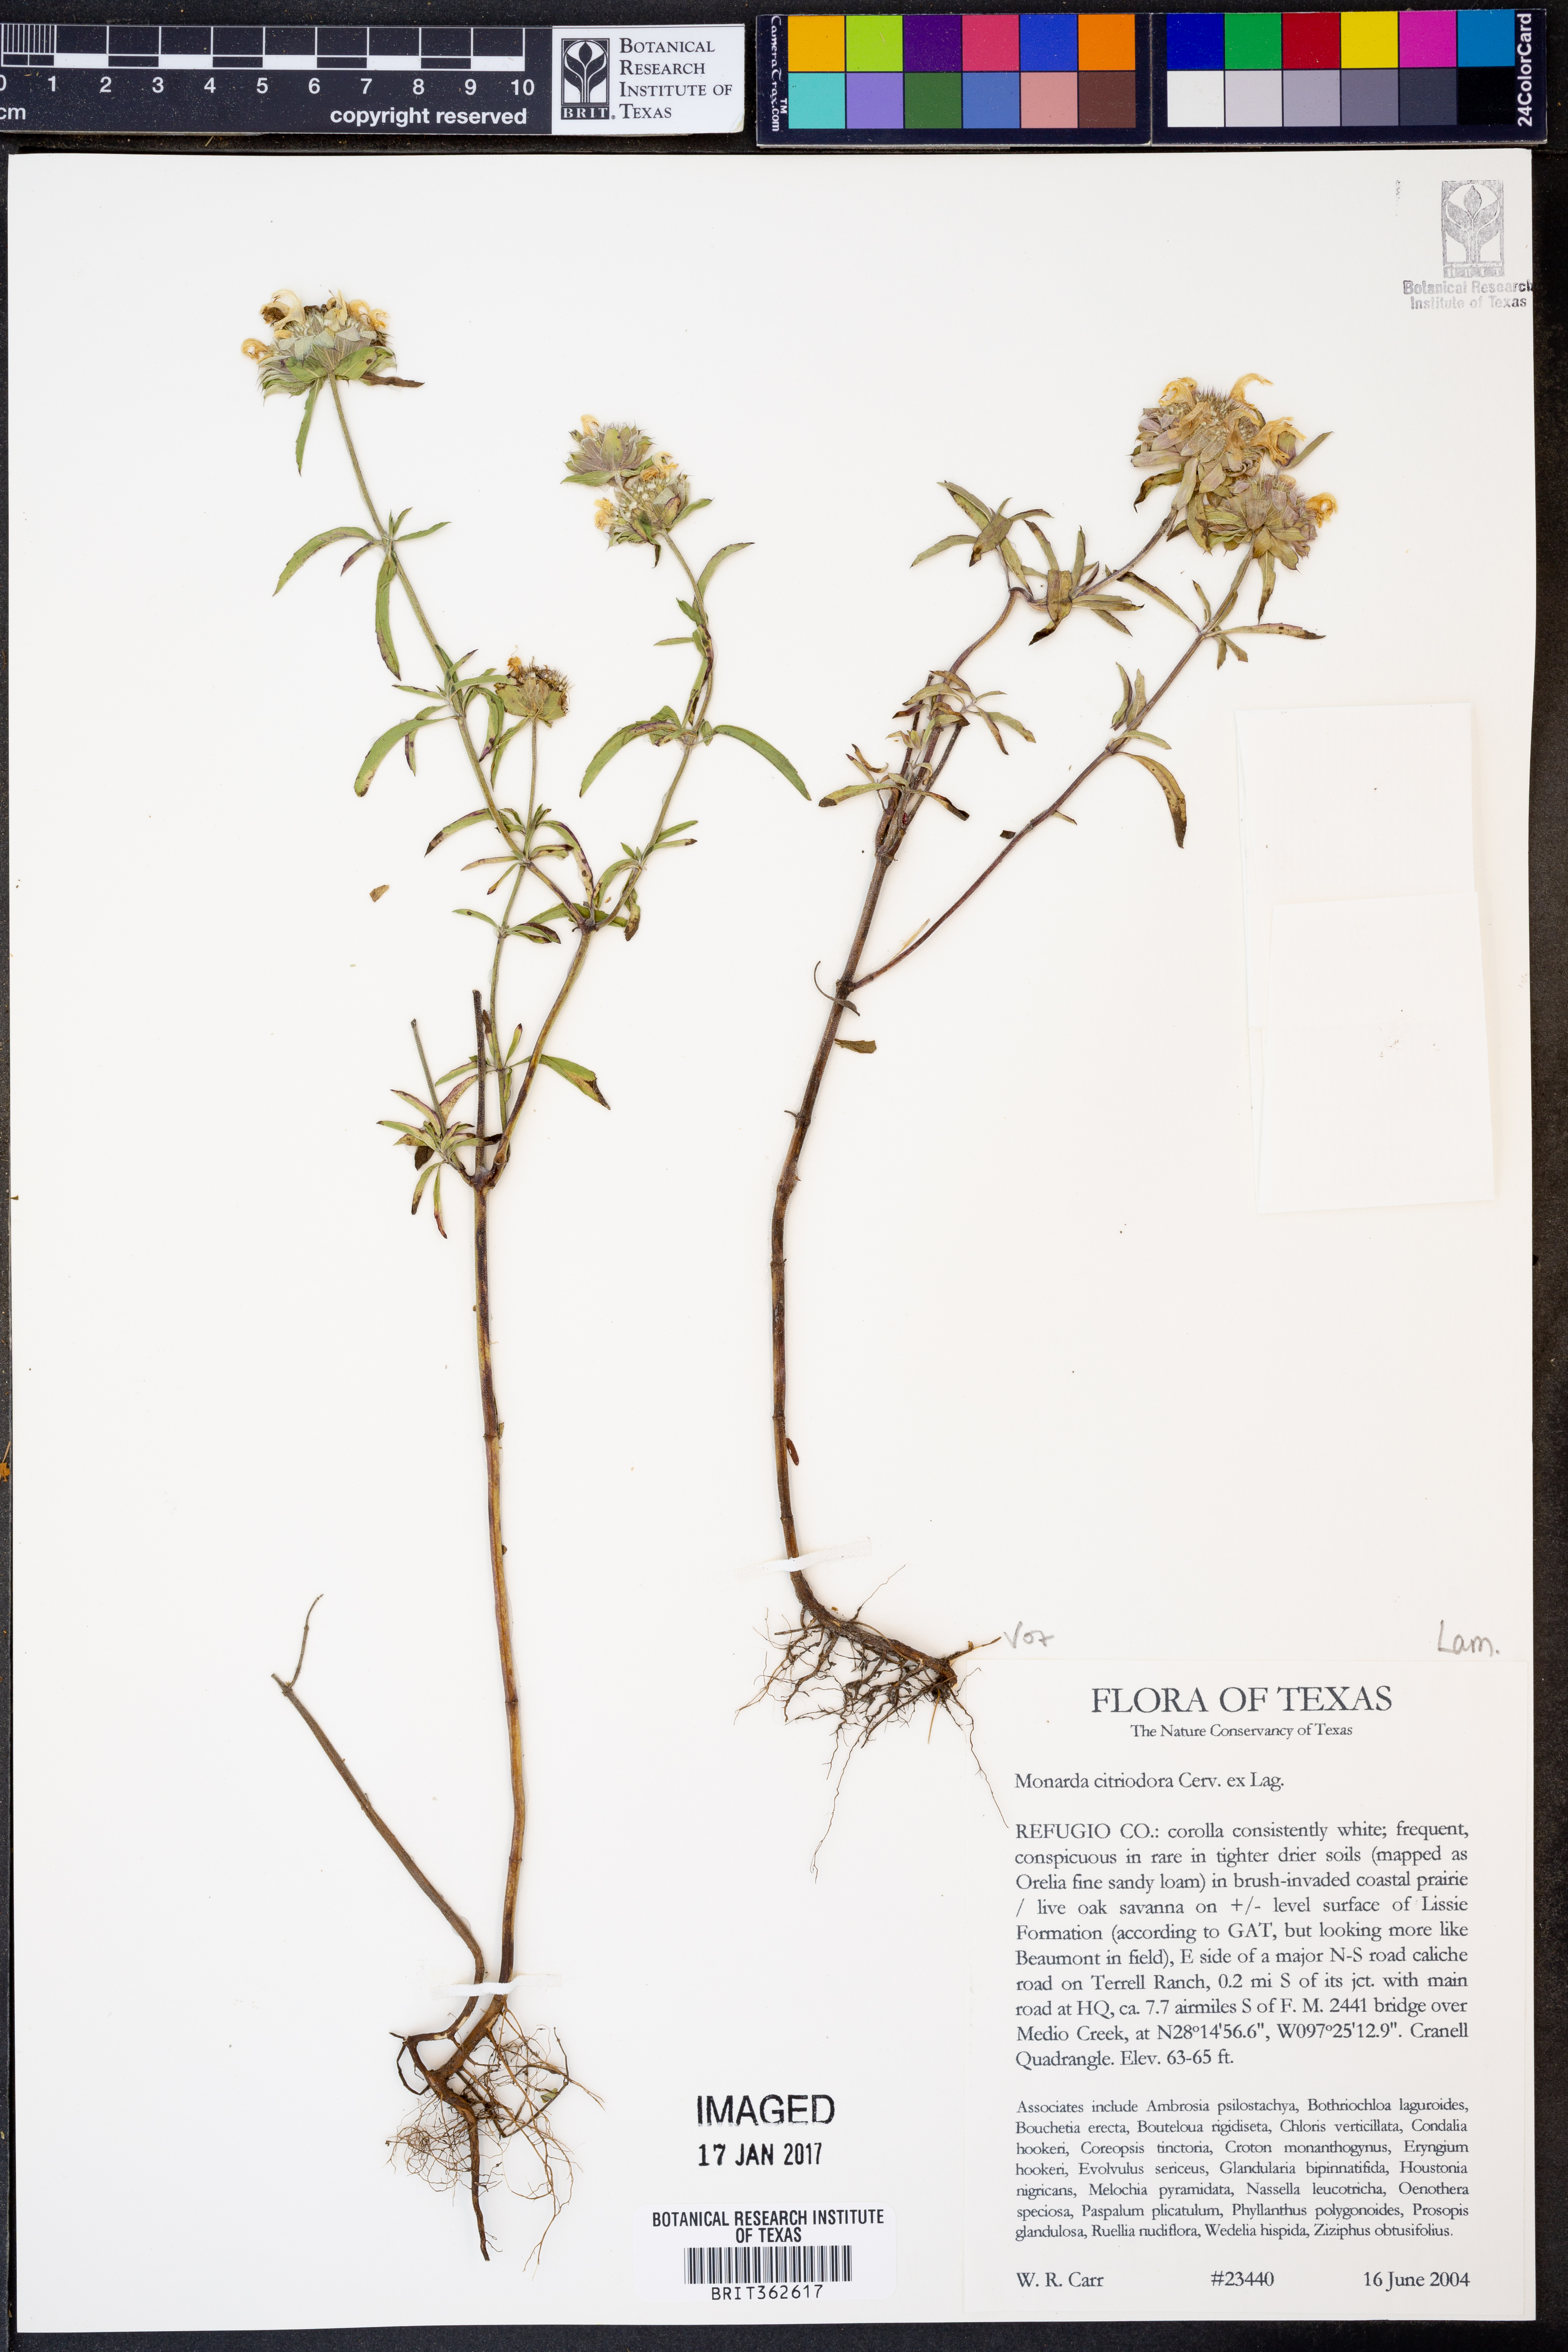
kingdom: Plantae
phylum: Tracheophyta
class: Magnoliopsida
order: Lamiales
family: Lamiaceae
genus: Monarda
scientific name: Monarda citriodora
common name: Lemon beebalm
